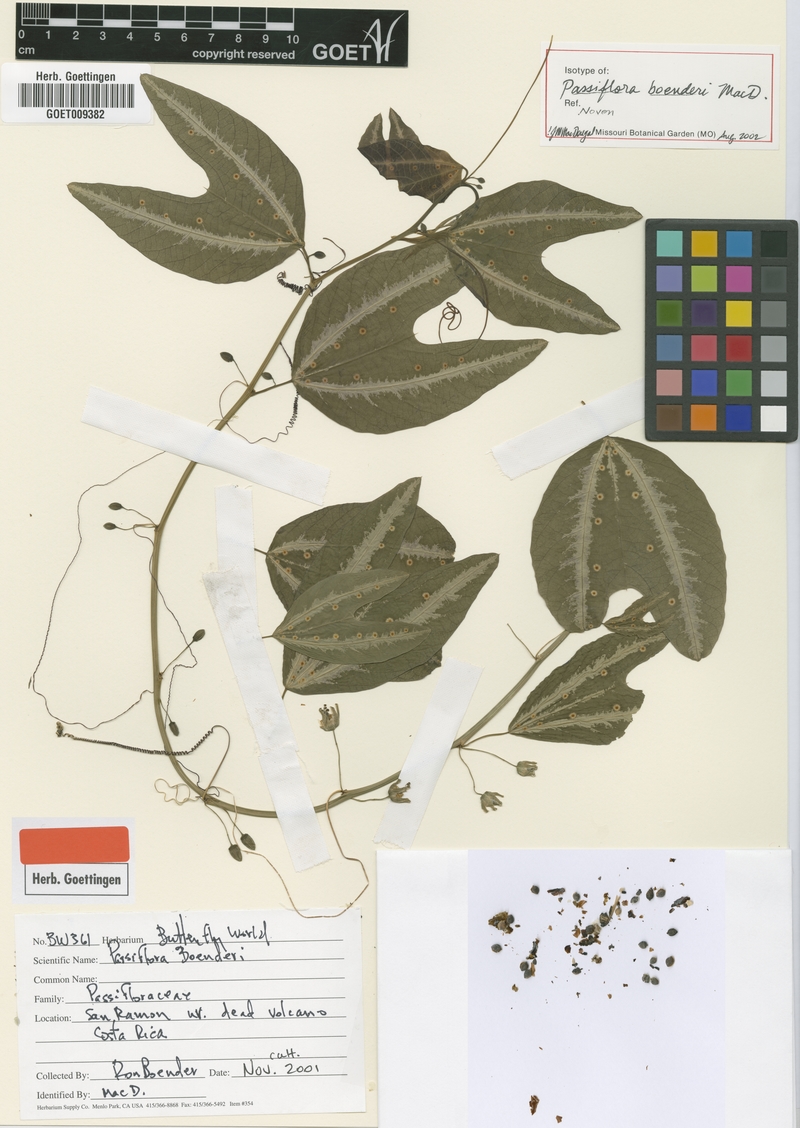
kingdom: Plantae
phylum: Tracheophyta
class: Magnoliopsida
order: Malpighiales
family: Passifloraceae
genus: Passiflora
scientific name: Passiflora boenderi
